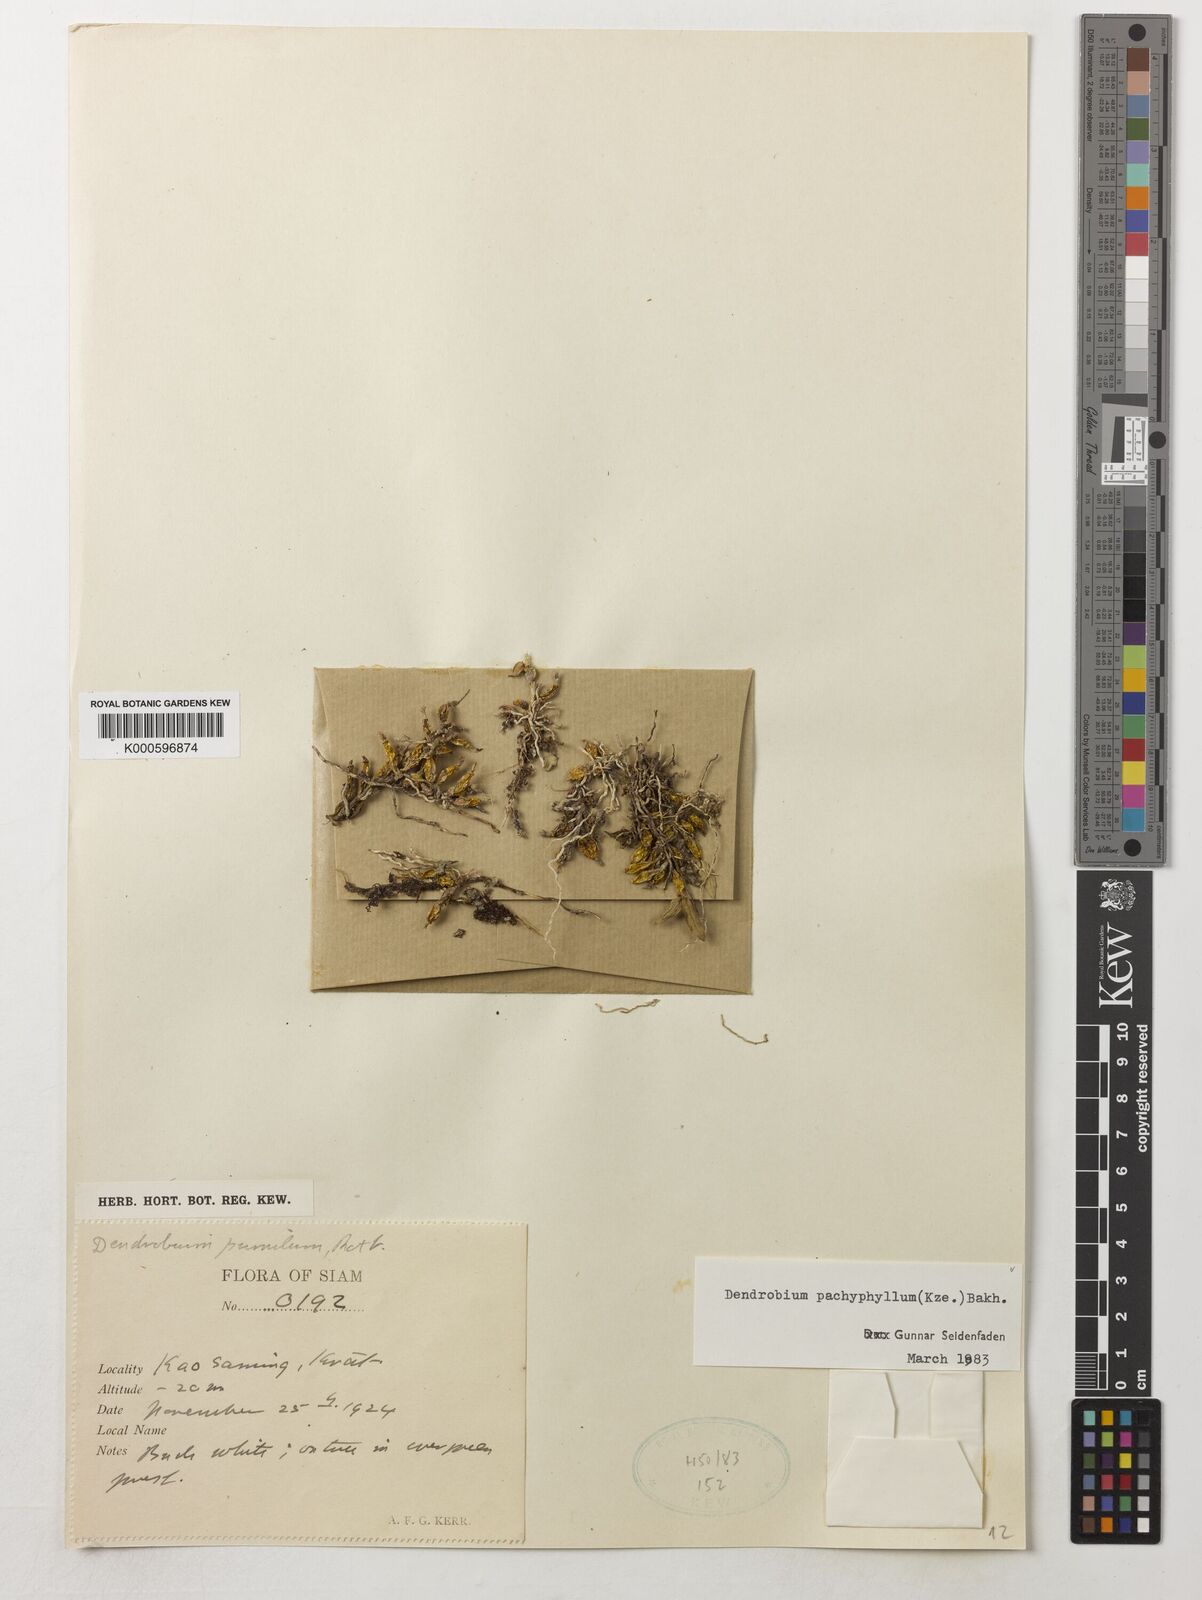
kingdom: Plantae
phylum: Tracheophyta
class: Liliopsida
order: Asparagales
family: Orchidaceae
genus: Dendrobium
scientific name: Dendrobium pachyphyllum
